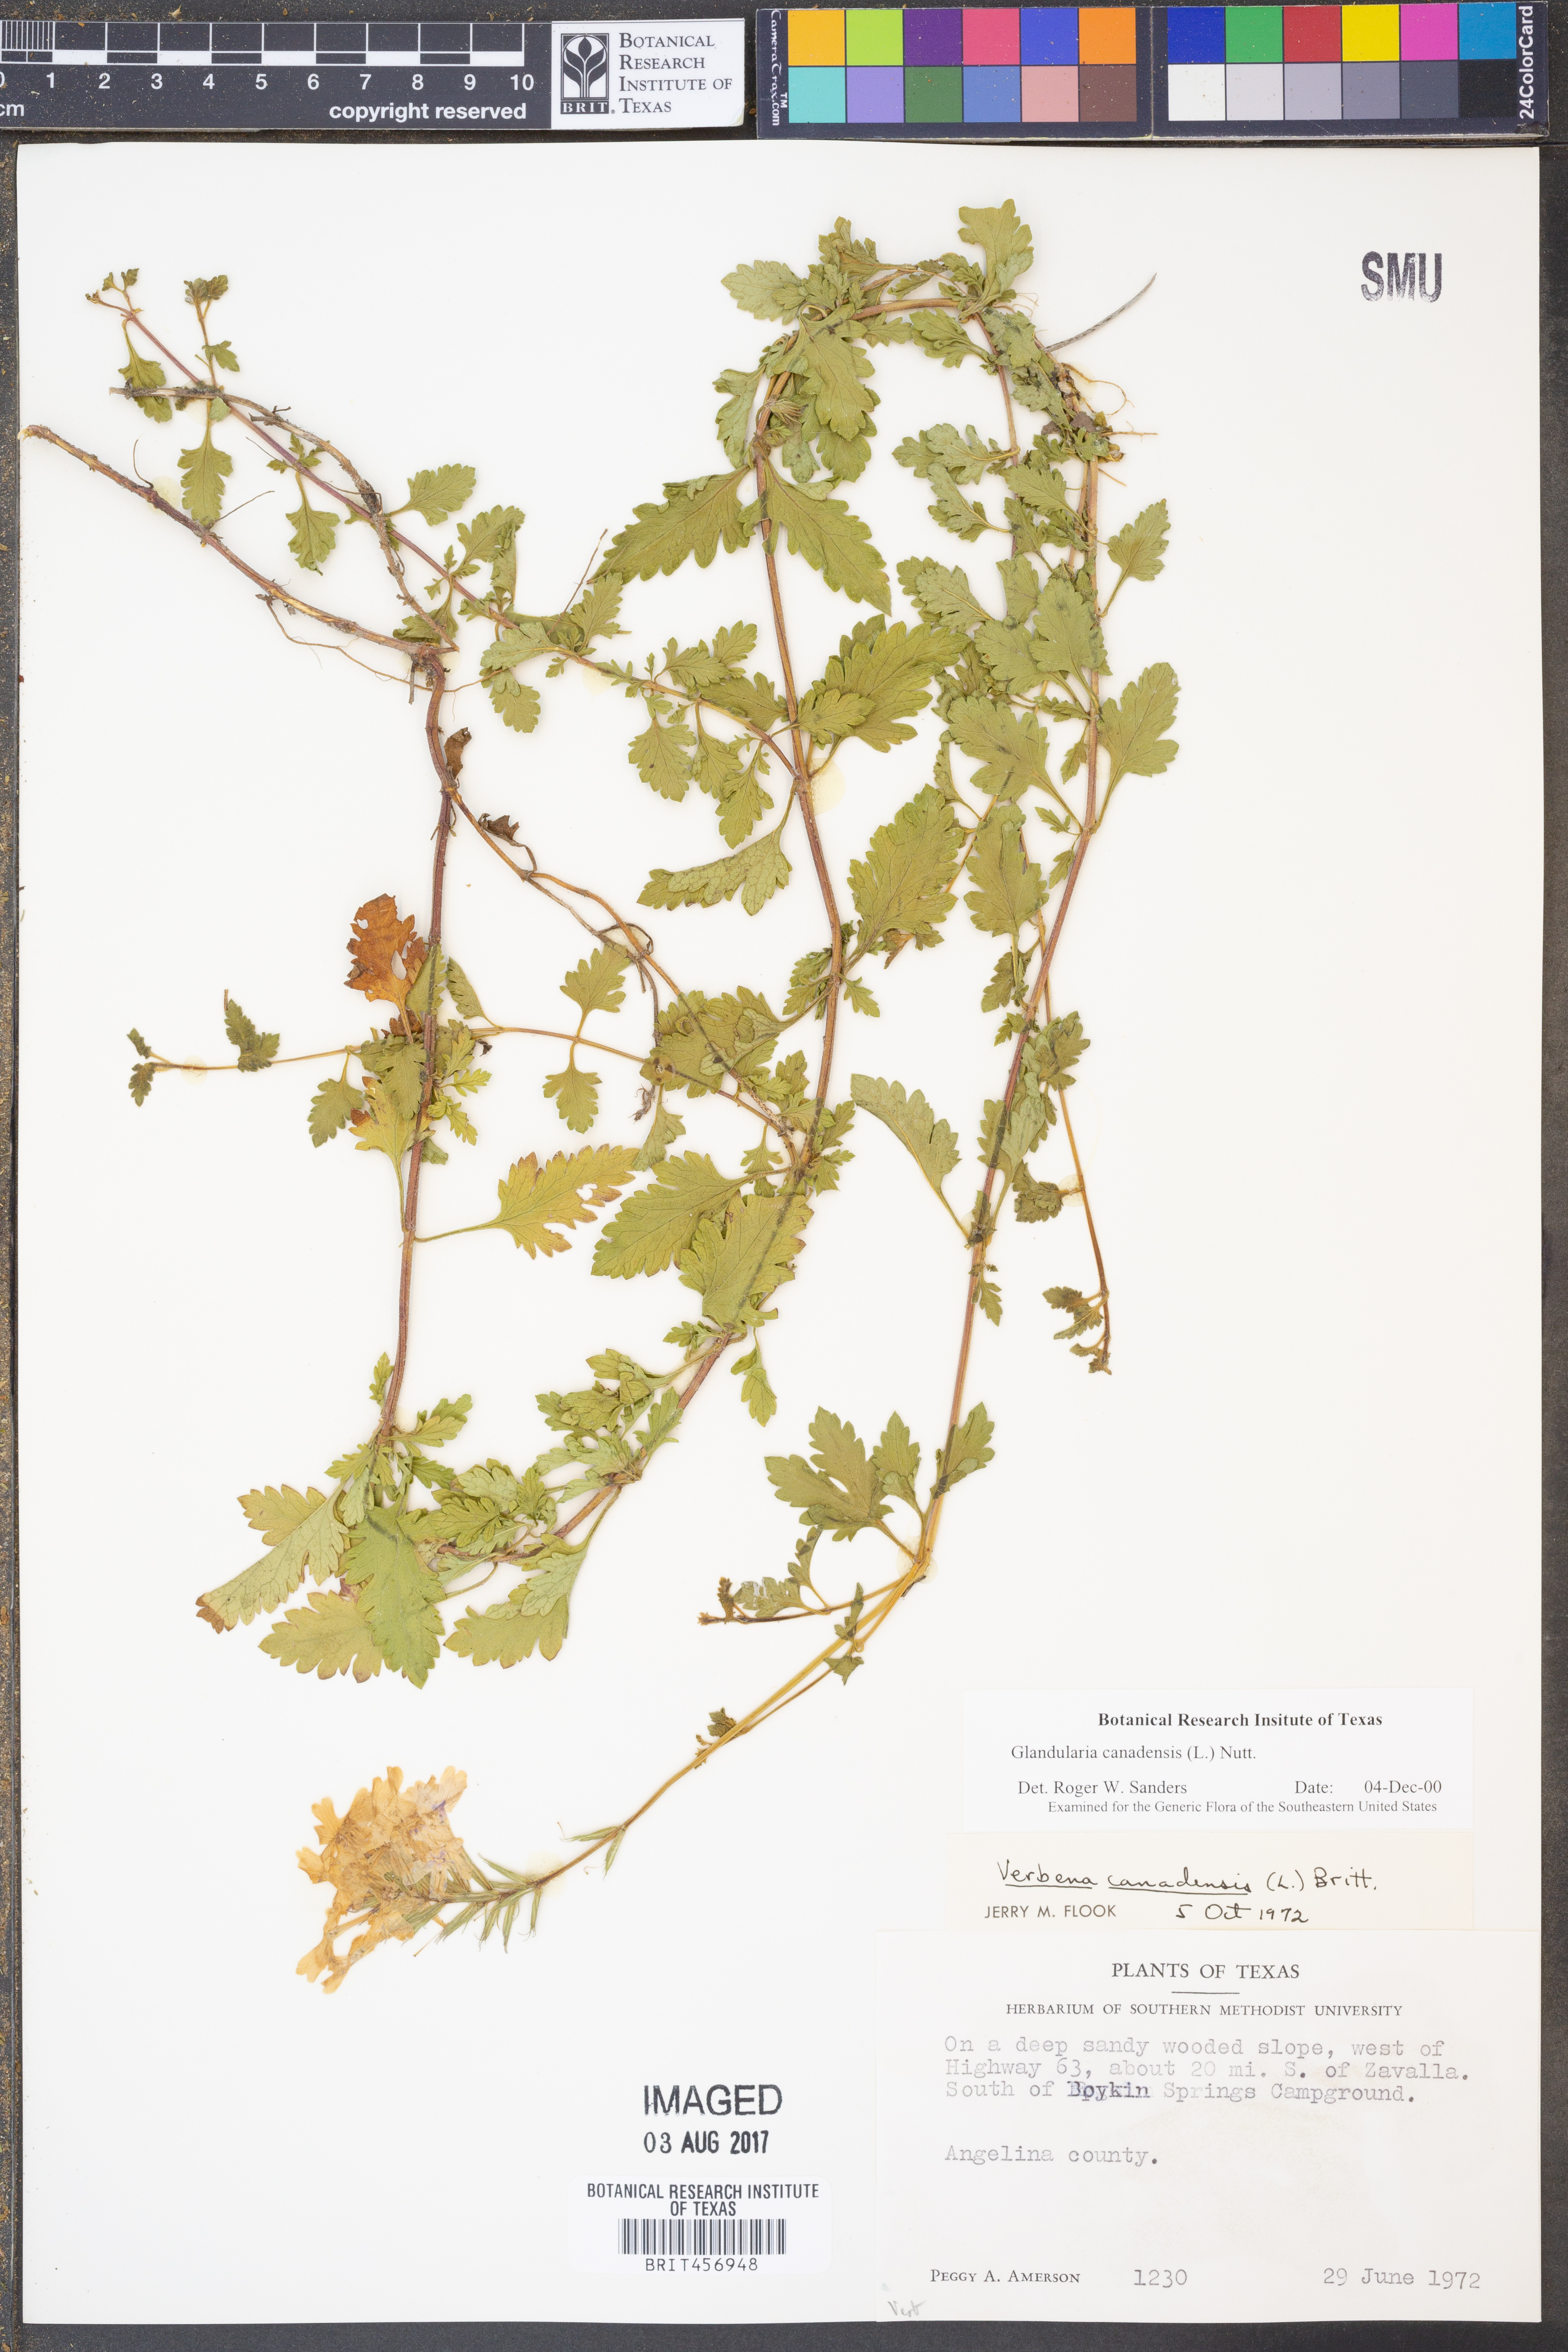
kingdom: Plantae
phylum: Tracheophyta
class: Magnoliopsida
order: Lamiales
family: Verbenaceae
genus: Verbena
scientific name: Verbena canadensis
